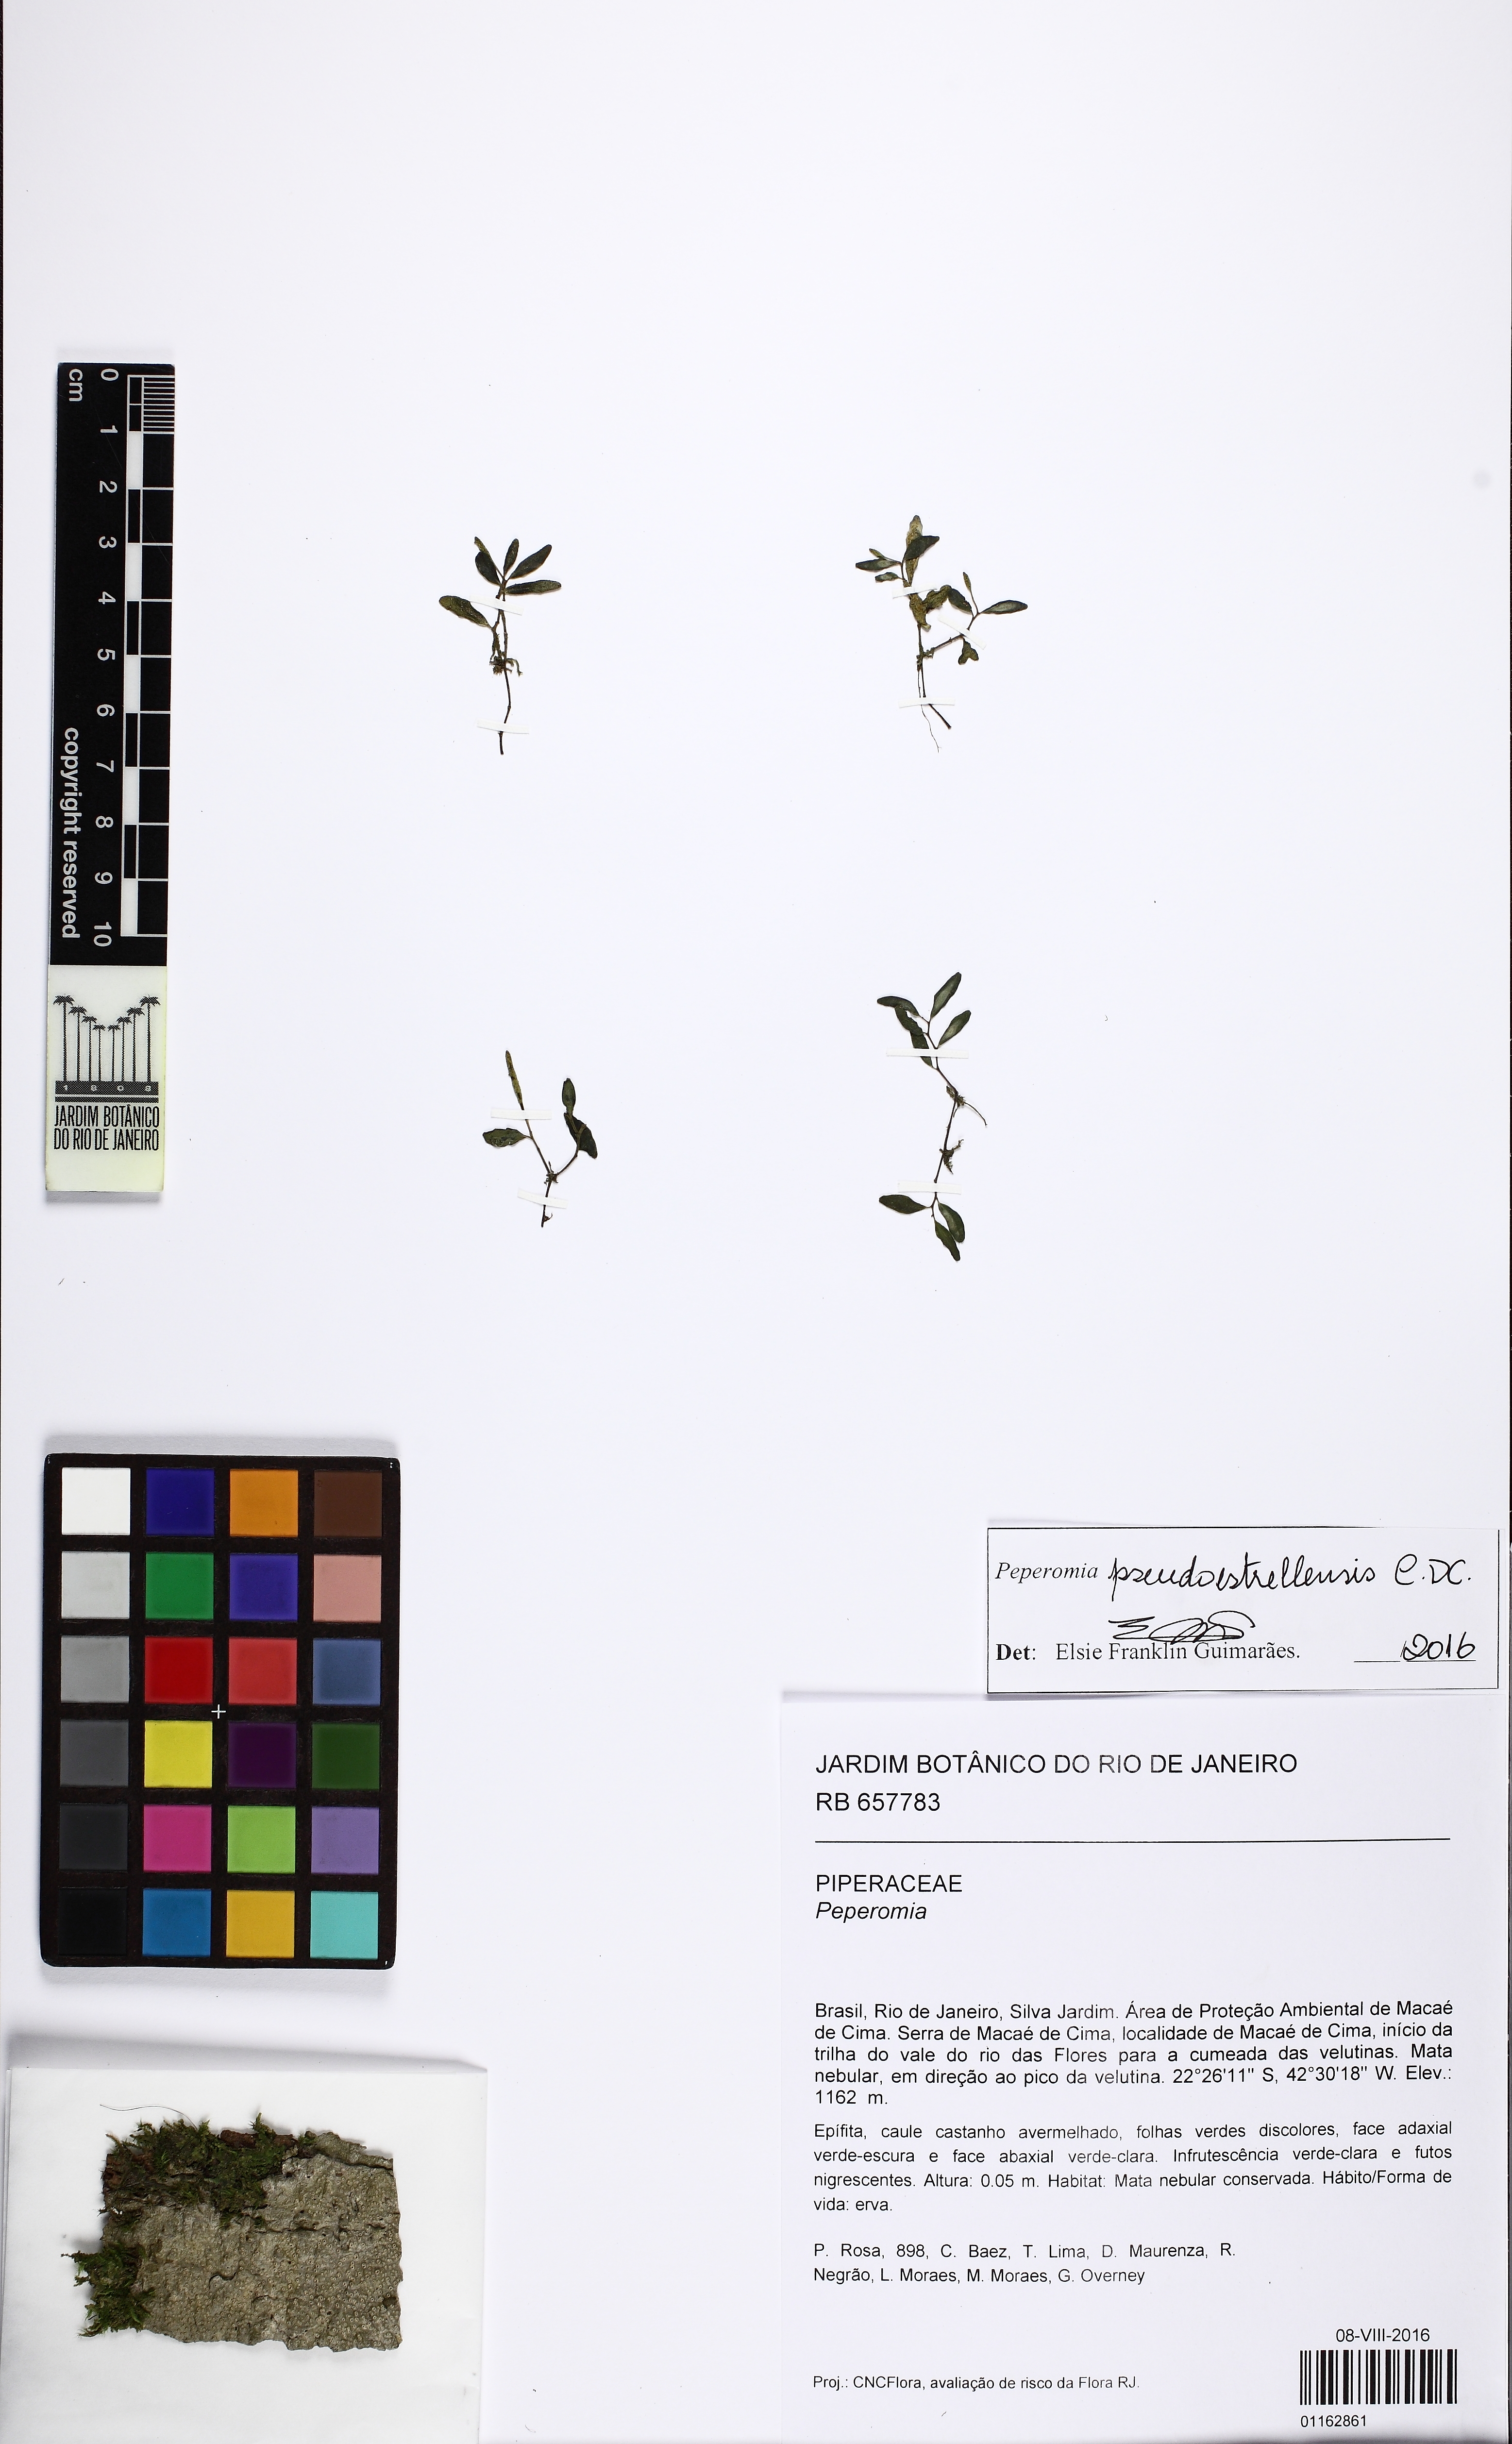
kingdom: Plantae
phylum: Tracheophyta
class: Magnoliopsida
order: Piperales
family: Piperaceae
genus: Peperomia
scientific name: Peperomia pseudoestrellensis
